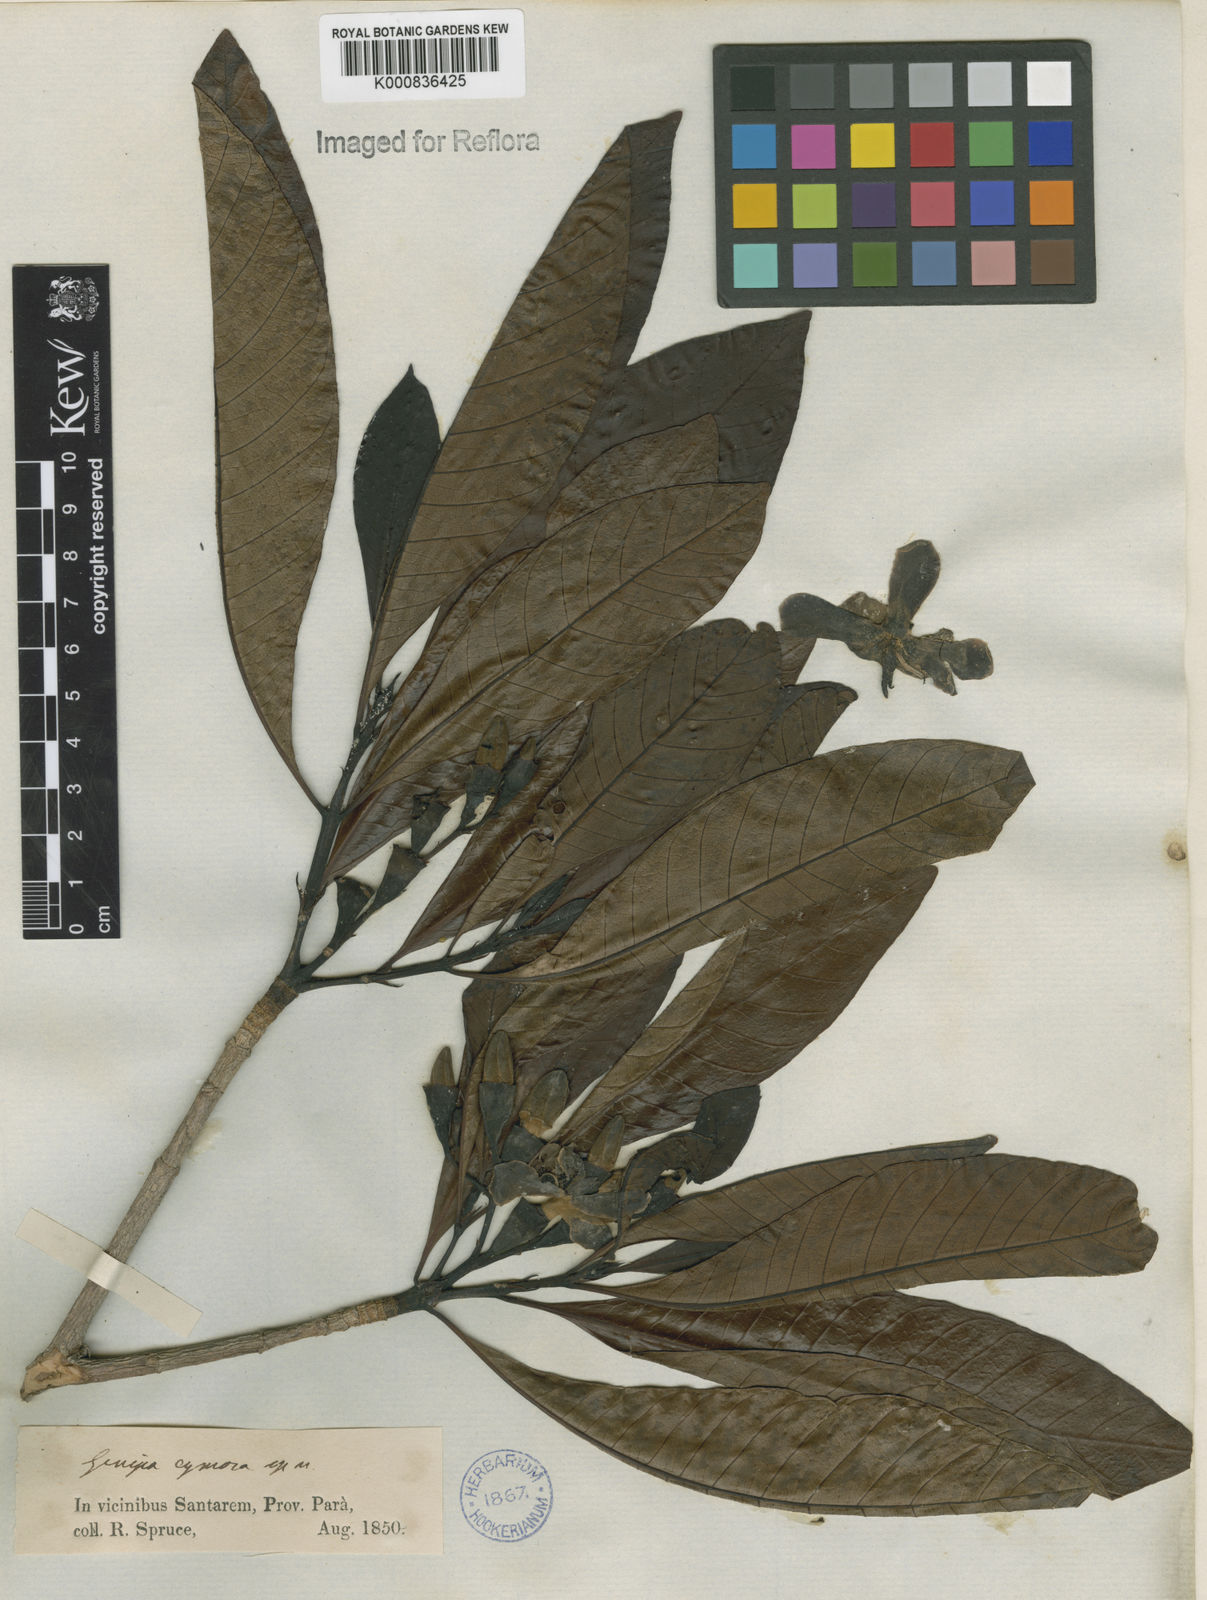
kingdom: Plantae
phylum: Tracheophyta
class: Magnoliopsida
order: Gentianales
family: Rubiaceae
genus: Genipa
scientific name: Genipa americana
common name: Genipap
